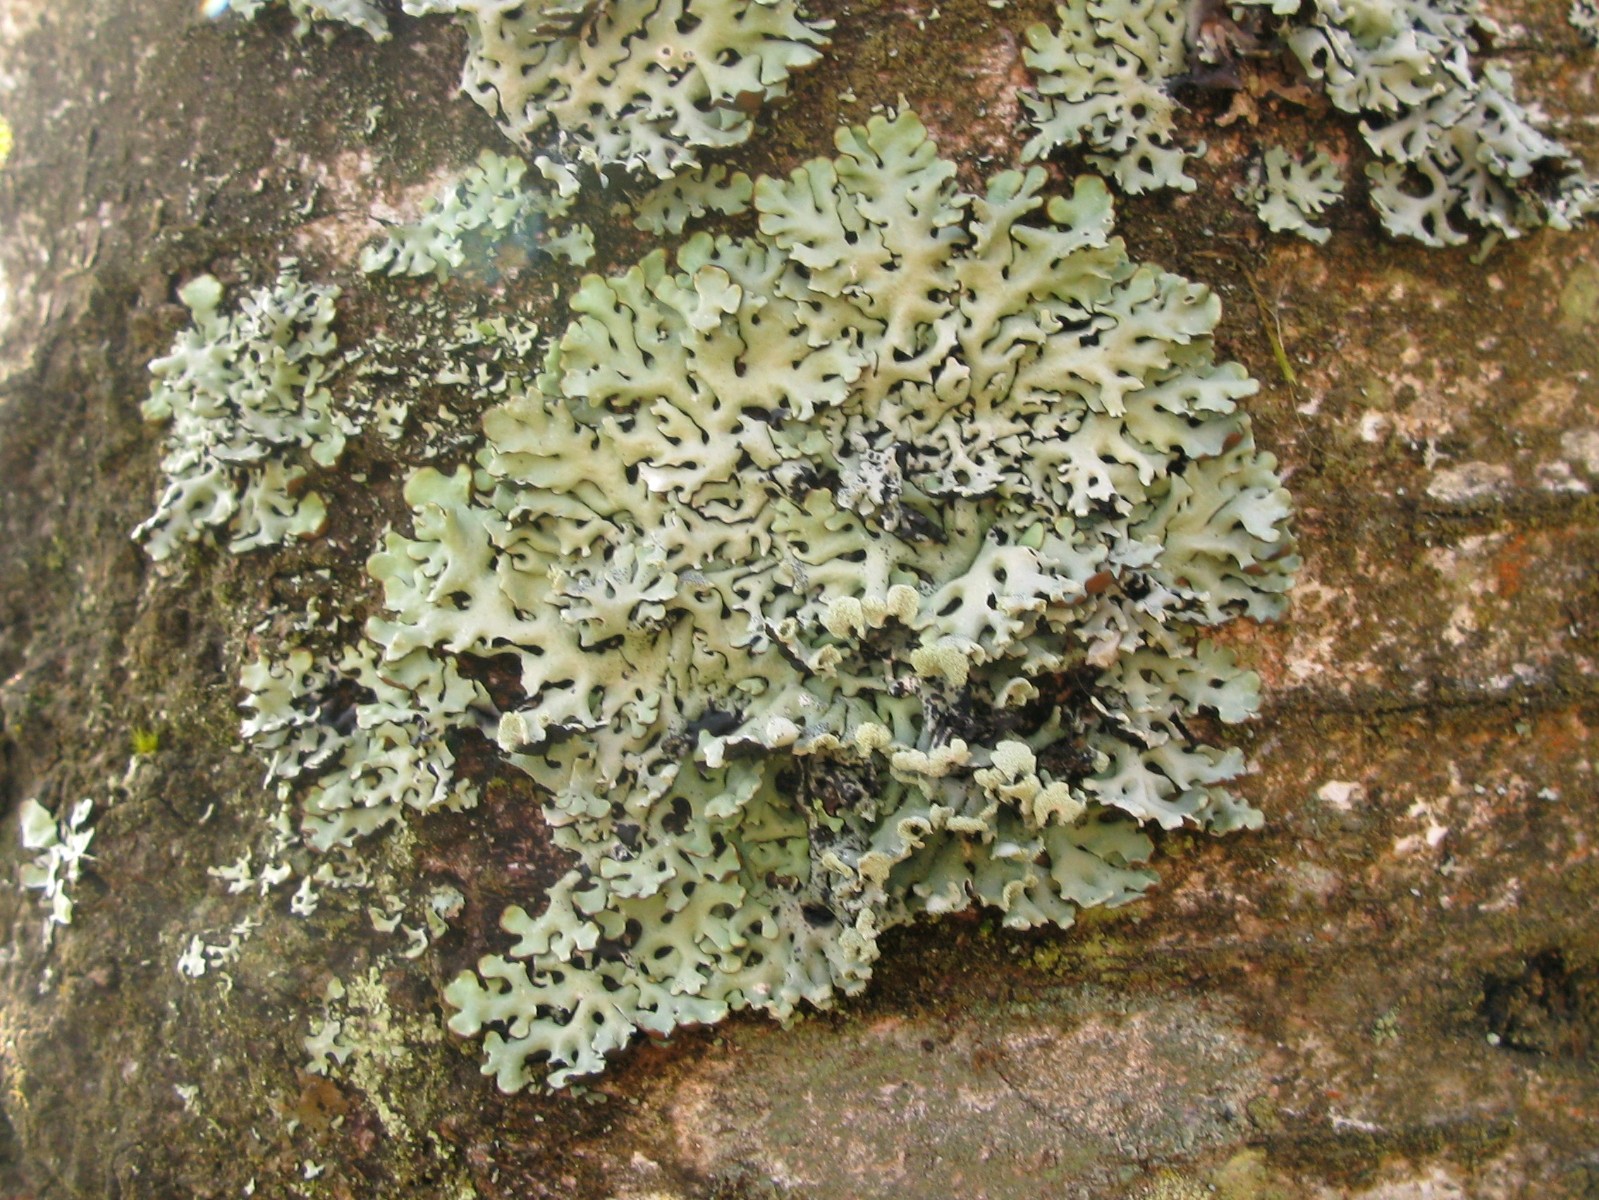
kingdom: Fungi
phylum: Ascomycota
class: Lecanoromycetes
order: Lecanorales
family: Parmeliaceae
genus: Hypogymnia
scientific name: Hypogymnia physodes
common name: almindelig kvistlav
